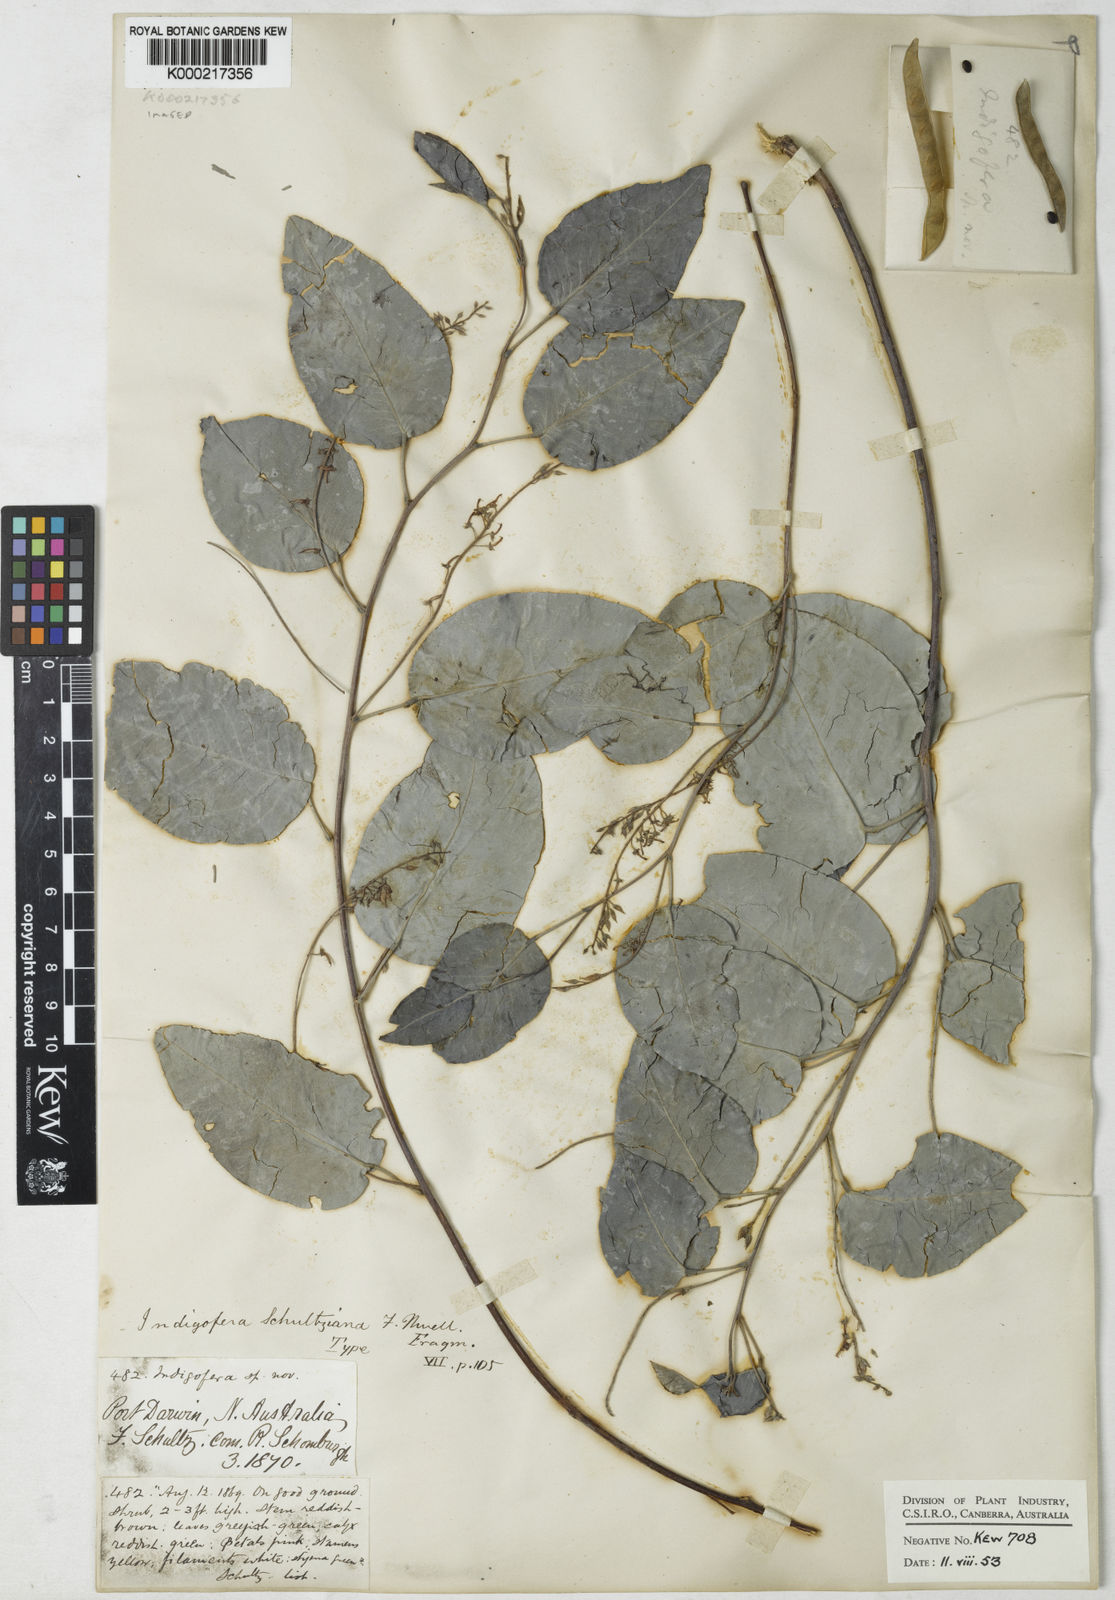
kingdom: Plantae
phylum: Tracheophyta
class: Magnoliopsida
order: Fabales
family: Fabaceae
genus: Indigofera
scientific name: Indigofera schultziana
